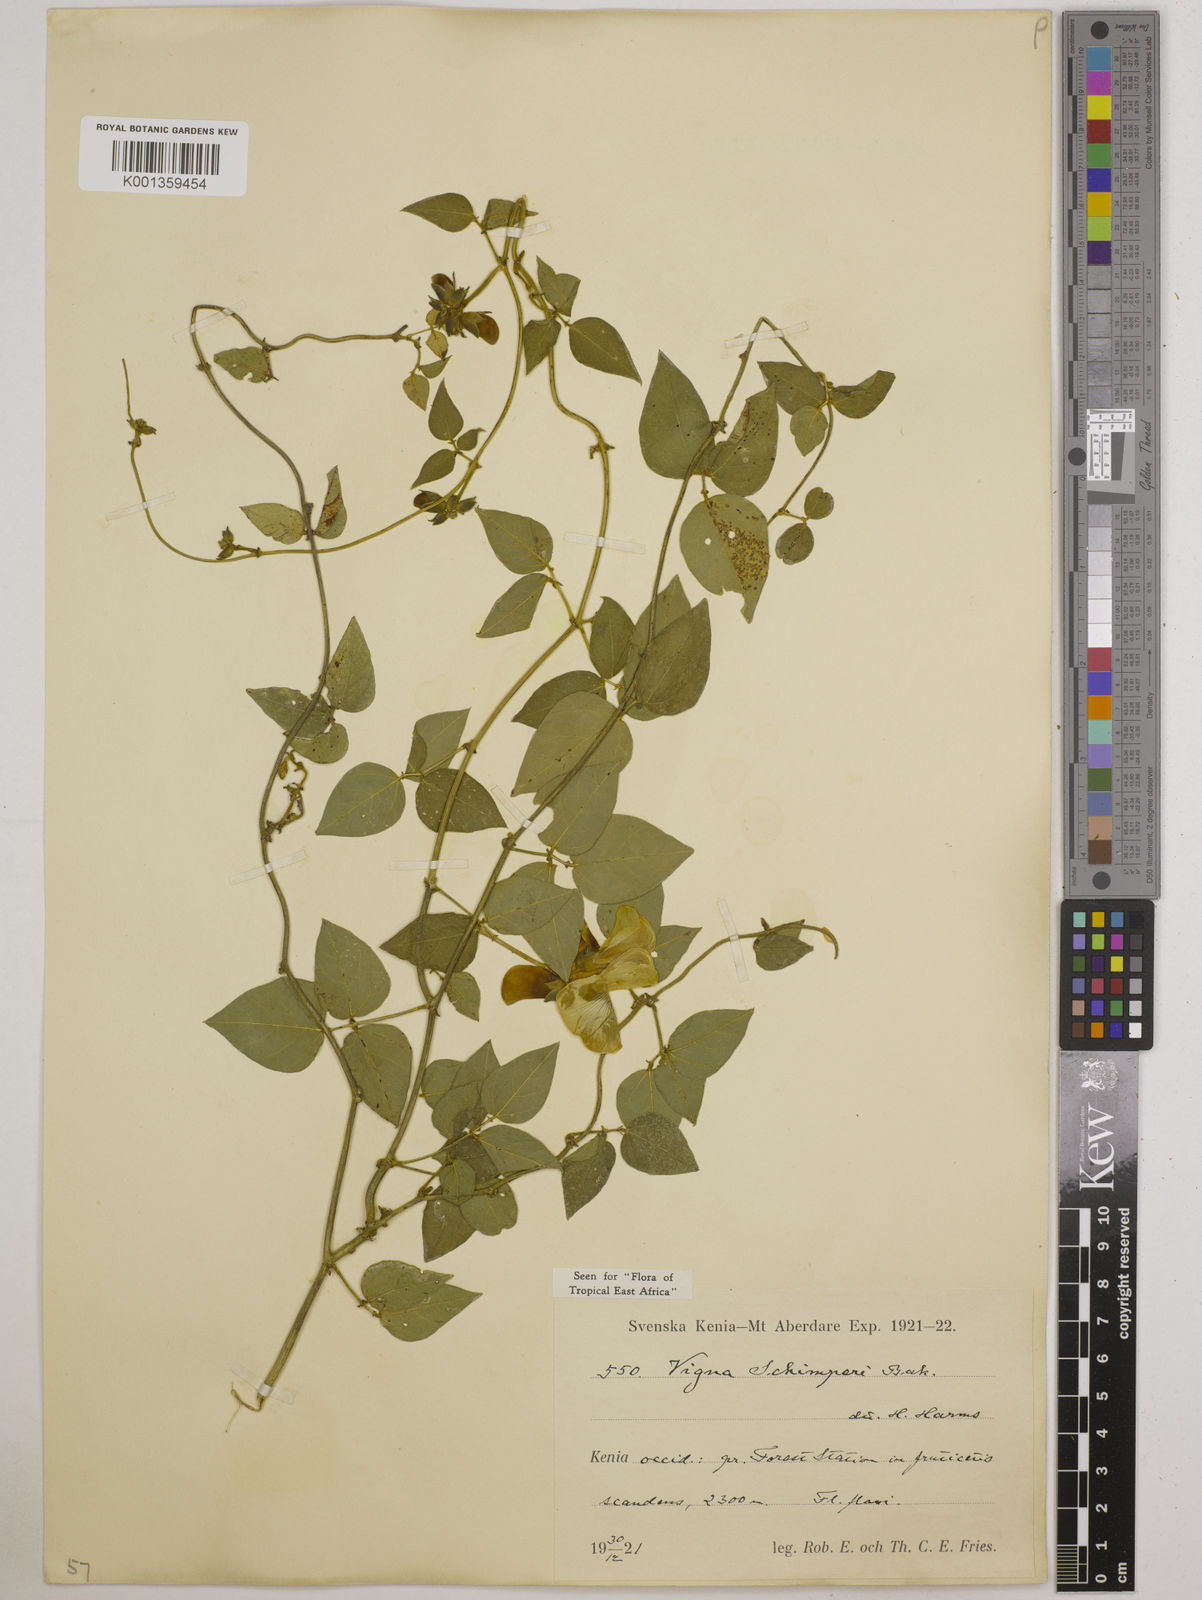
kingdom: Plantae
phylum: Tracheophyta
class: Magnoliopsida
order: Fabales
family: Fabaceae
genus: Vigna
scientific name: Vigna schimperi
